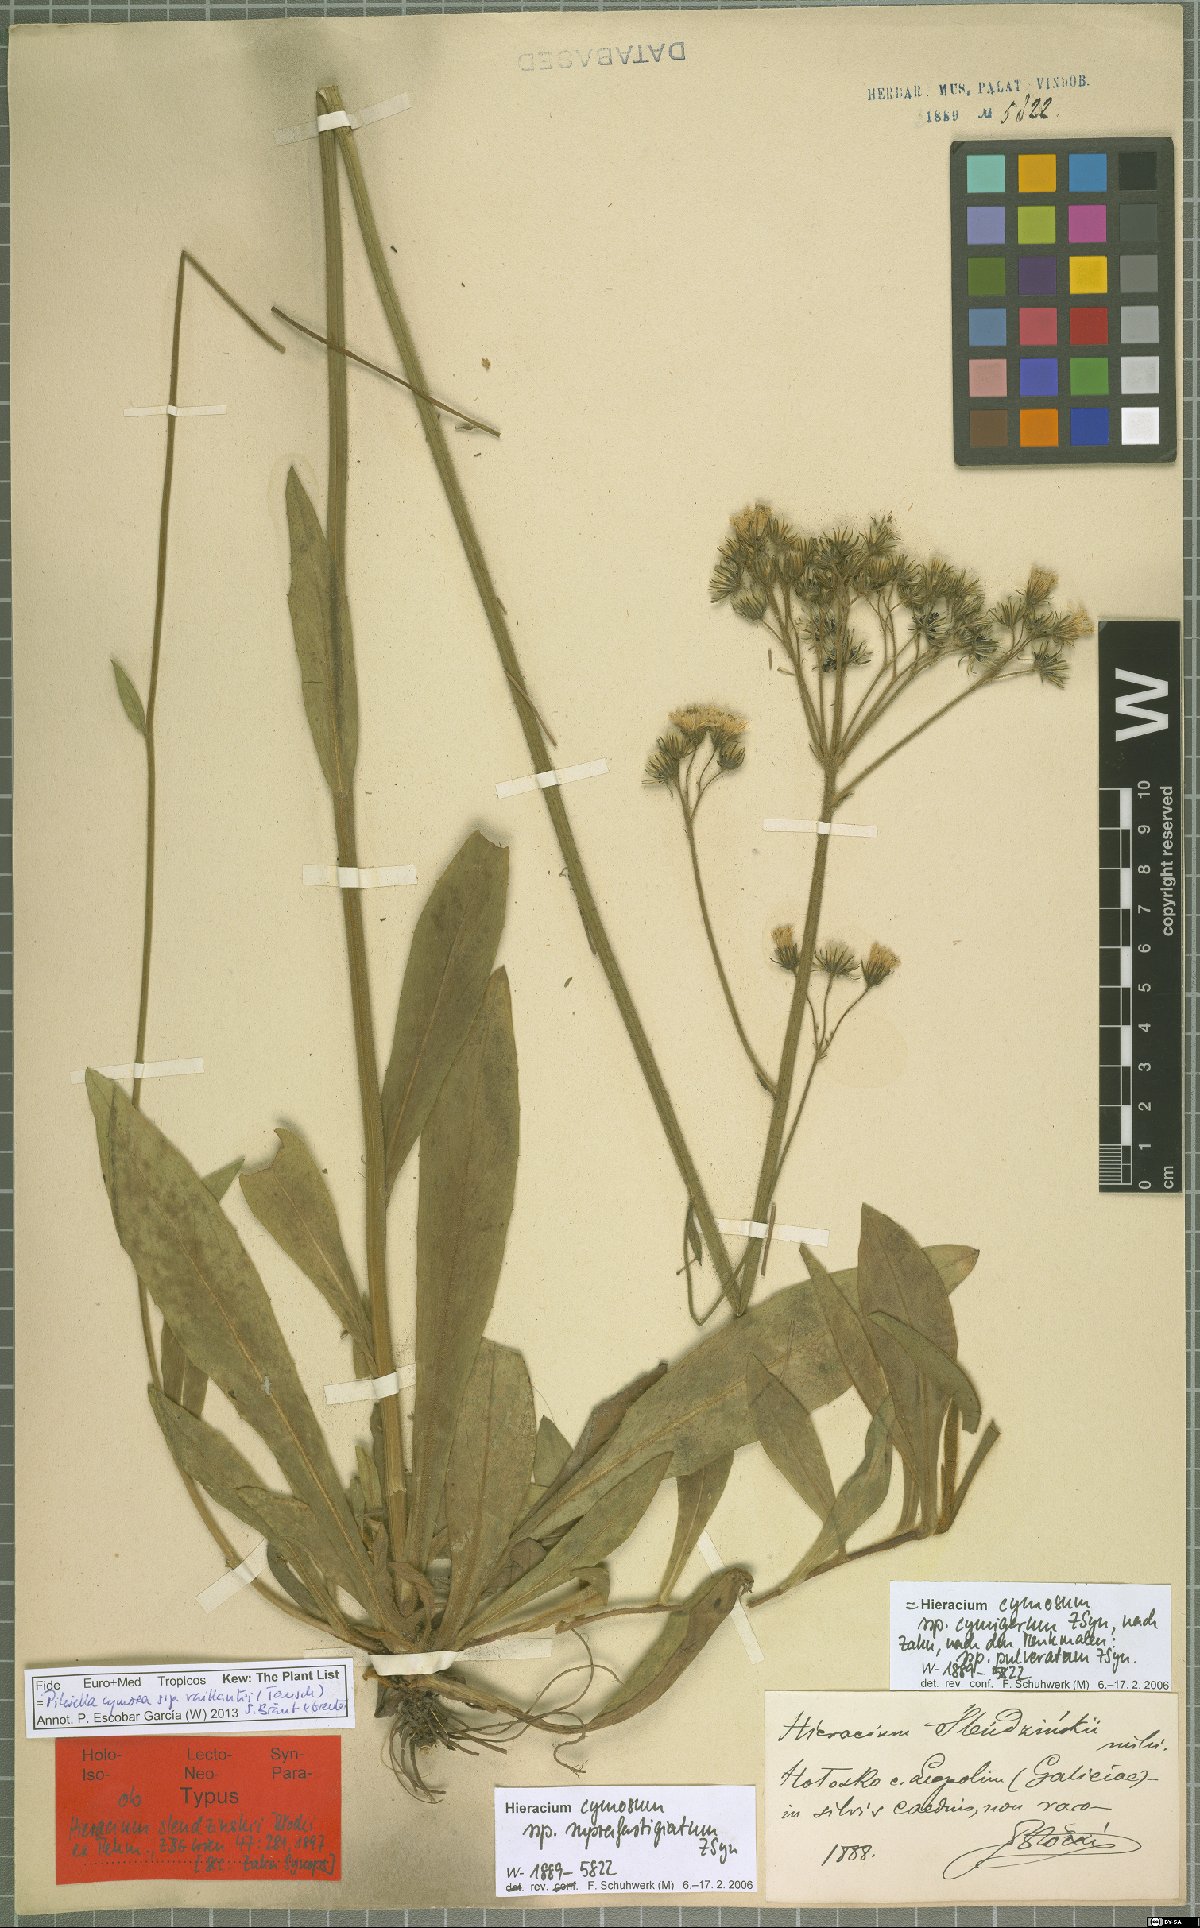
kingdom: Plantae
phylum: Tracheophyta
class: Magnoliopsida
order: Asterales
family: Asteraceae
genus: Pilosella
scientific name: Pilosella cymosa
